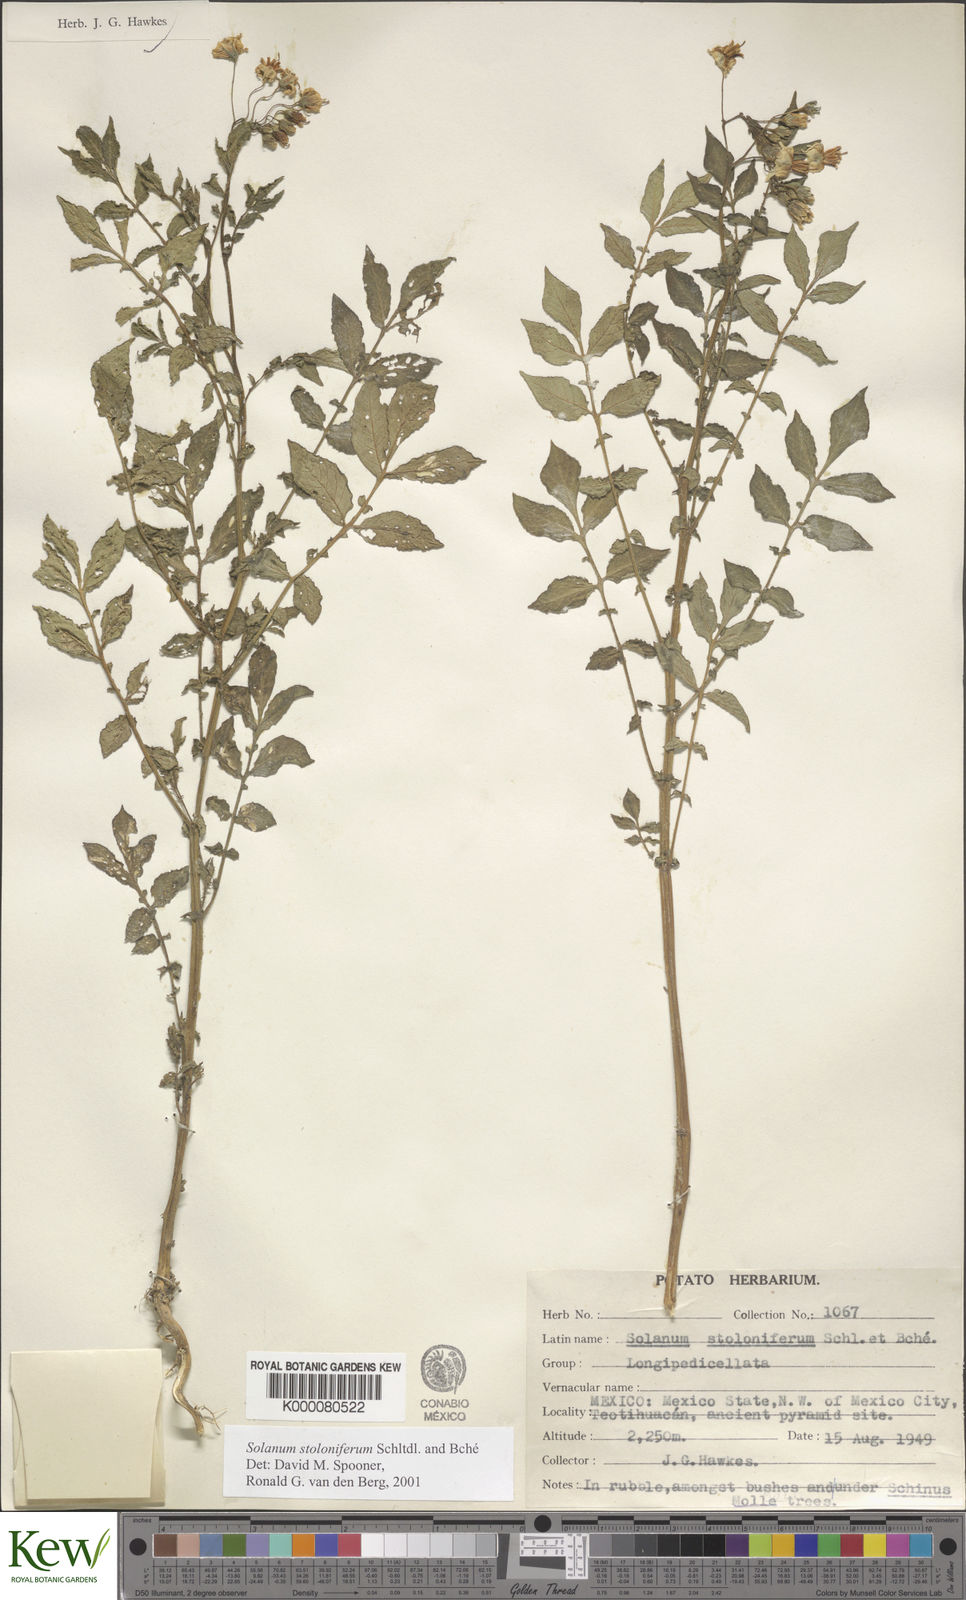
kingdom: Plantae
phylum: Tracheophyta
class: Magnoliopsida
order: Solanales
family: Solanaceae
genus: Solanum
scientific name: Solanum stoloniferum
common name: Fendler's nighshade
